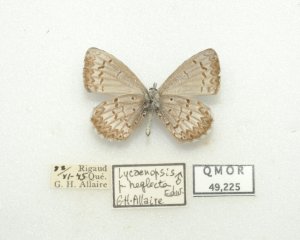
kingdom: Animalia
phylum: Arthropoda
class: Insecta
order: Lepidoptera
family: Lycaenidae
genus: Cyaniris
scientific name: Cyaniris neglecta
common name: Summer Azure
